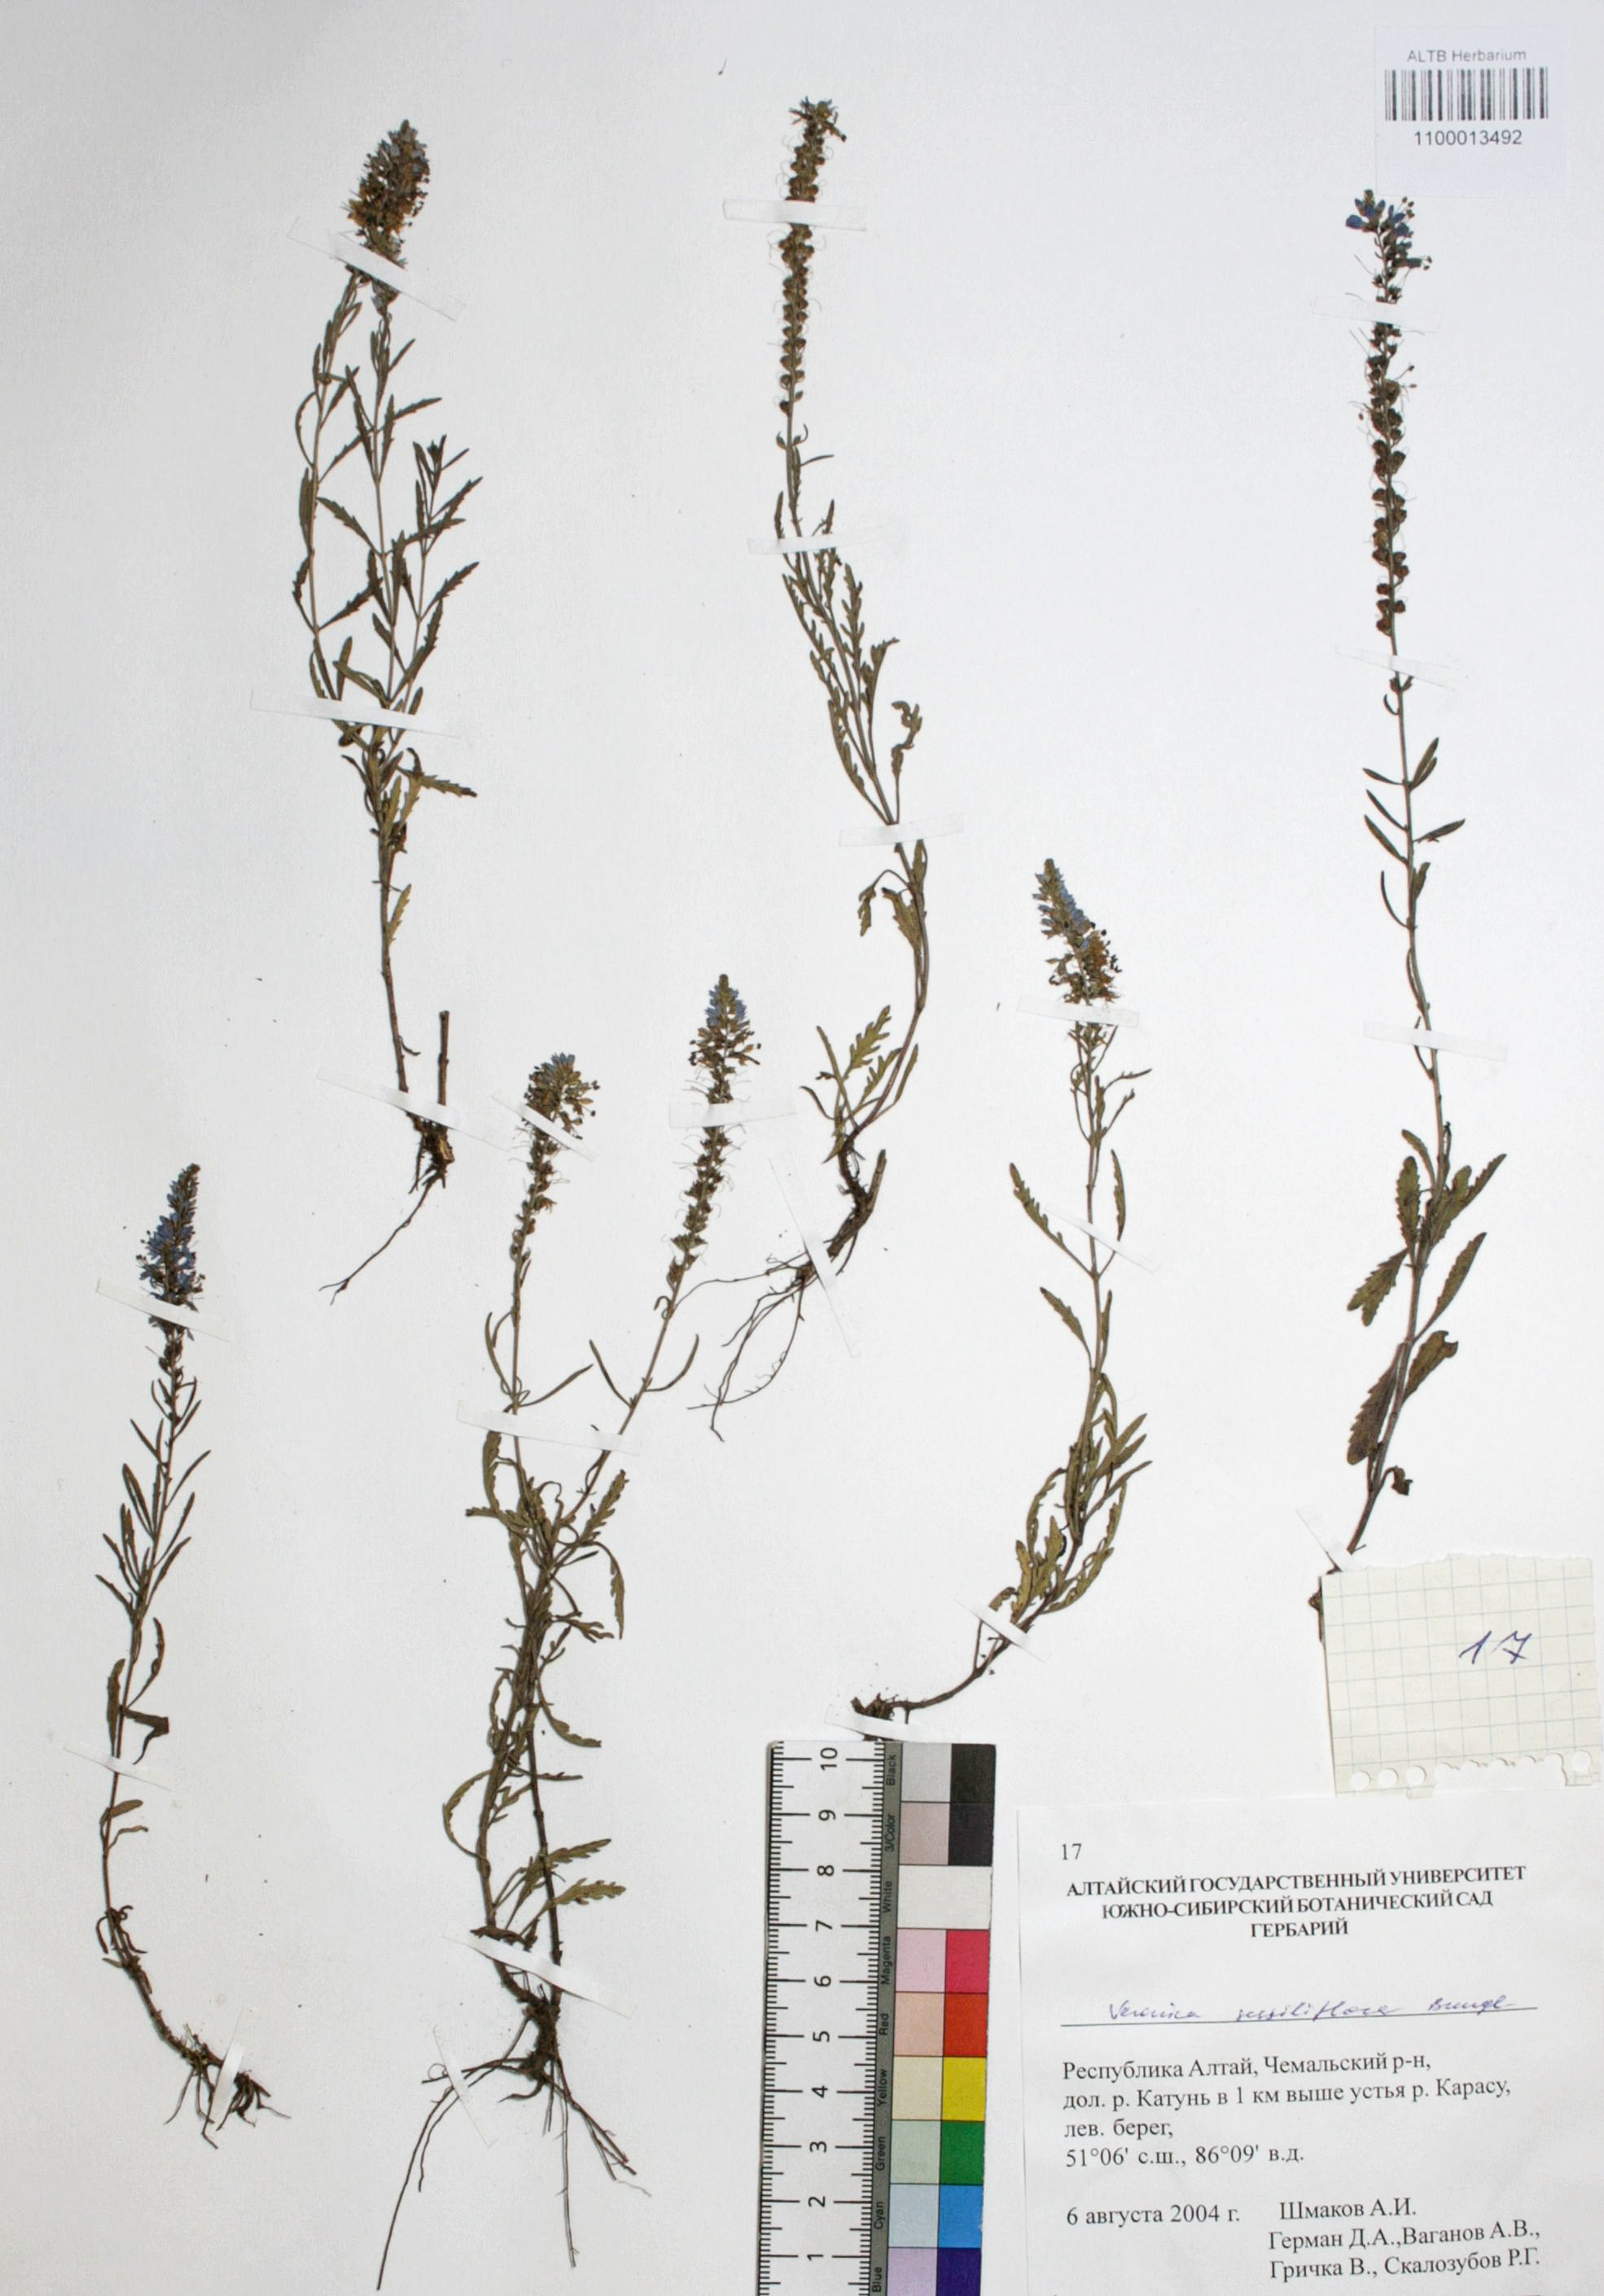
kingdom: Plantae
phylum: Tracheophyta
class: Magnoliopsida
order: Lamiales
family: Plantaginaceae
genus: Veronica
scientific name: Veronica sessiliflora
